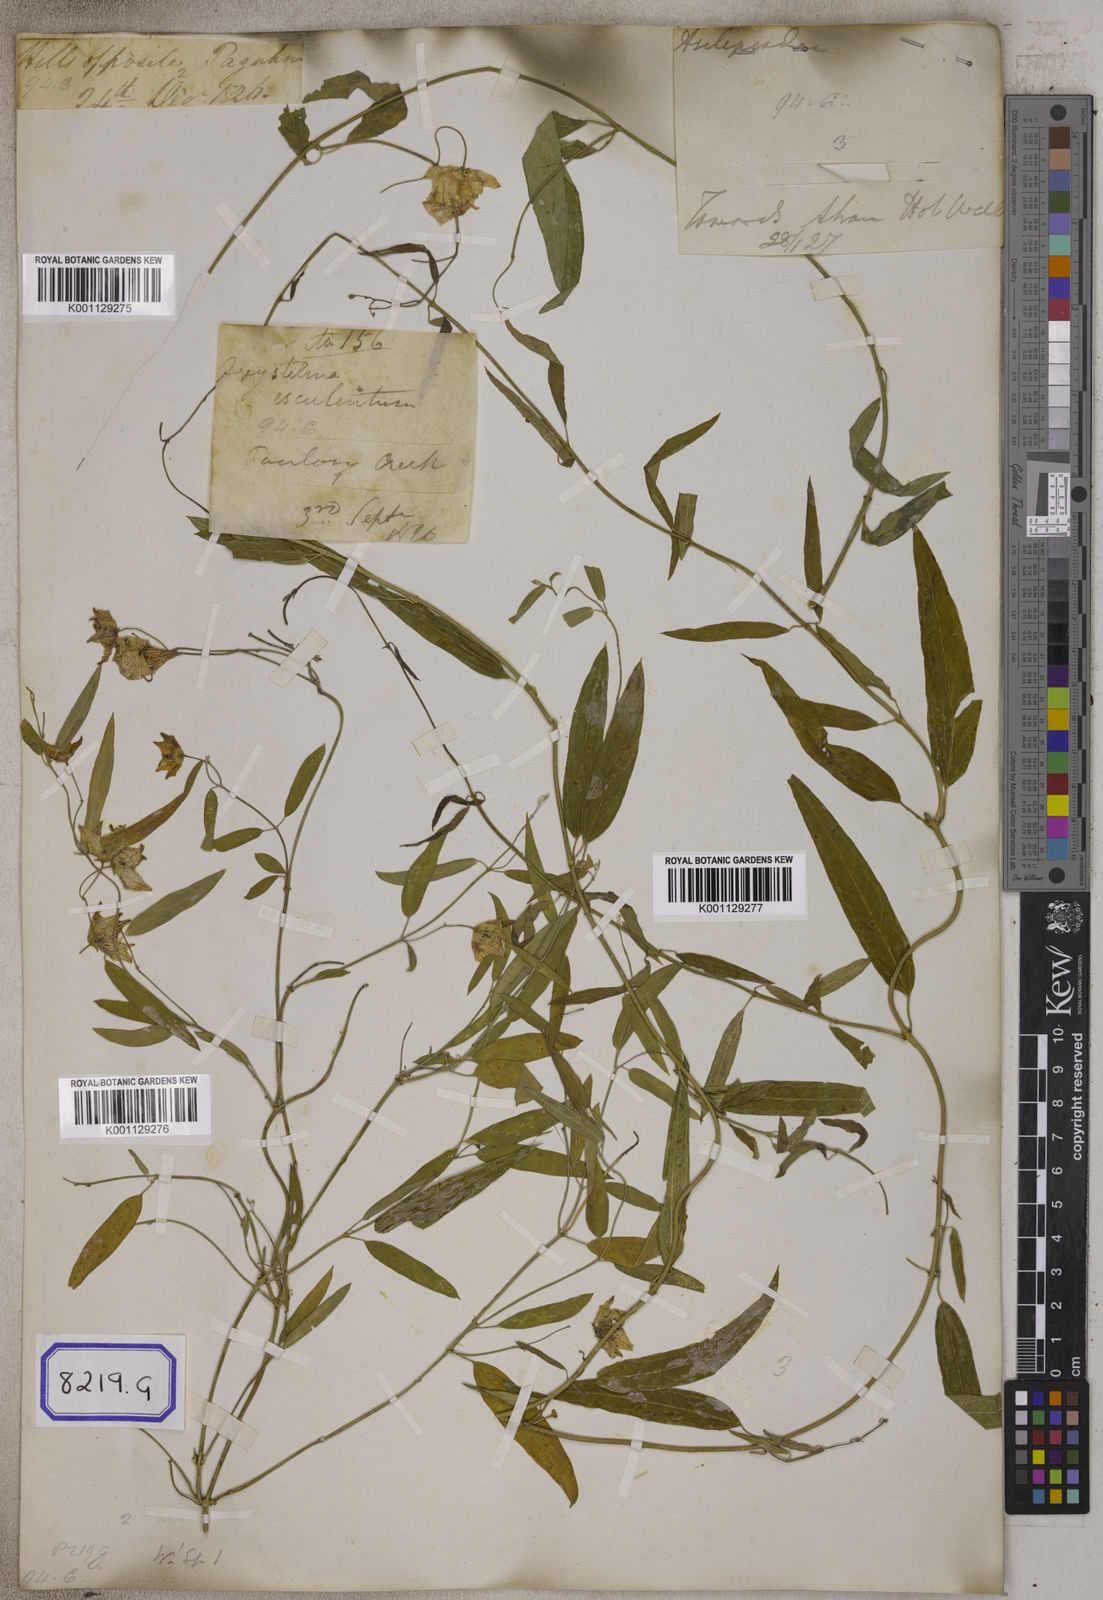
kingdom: Plantae
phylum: Tracheophyta
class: Magnoliopsida
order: Gentianales
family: Apocynaceae
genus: Oxystelma
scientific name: Oxystelma
